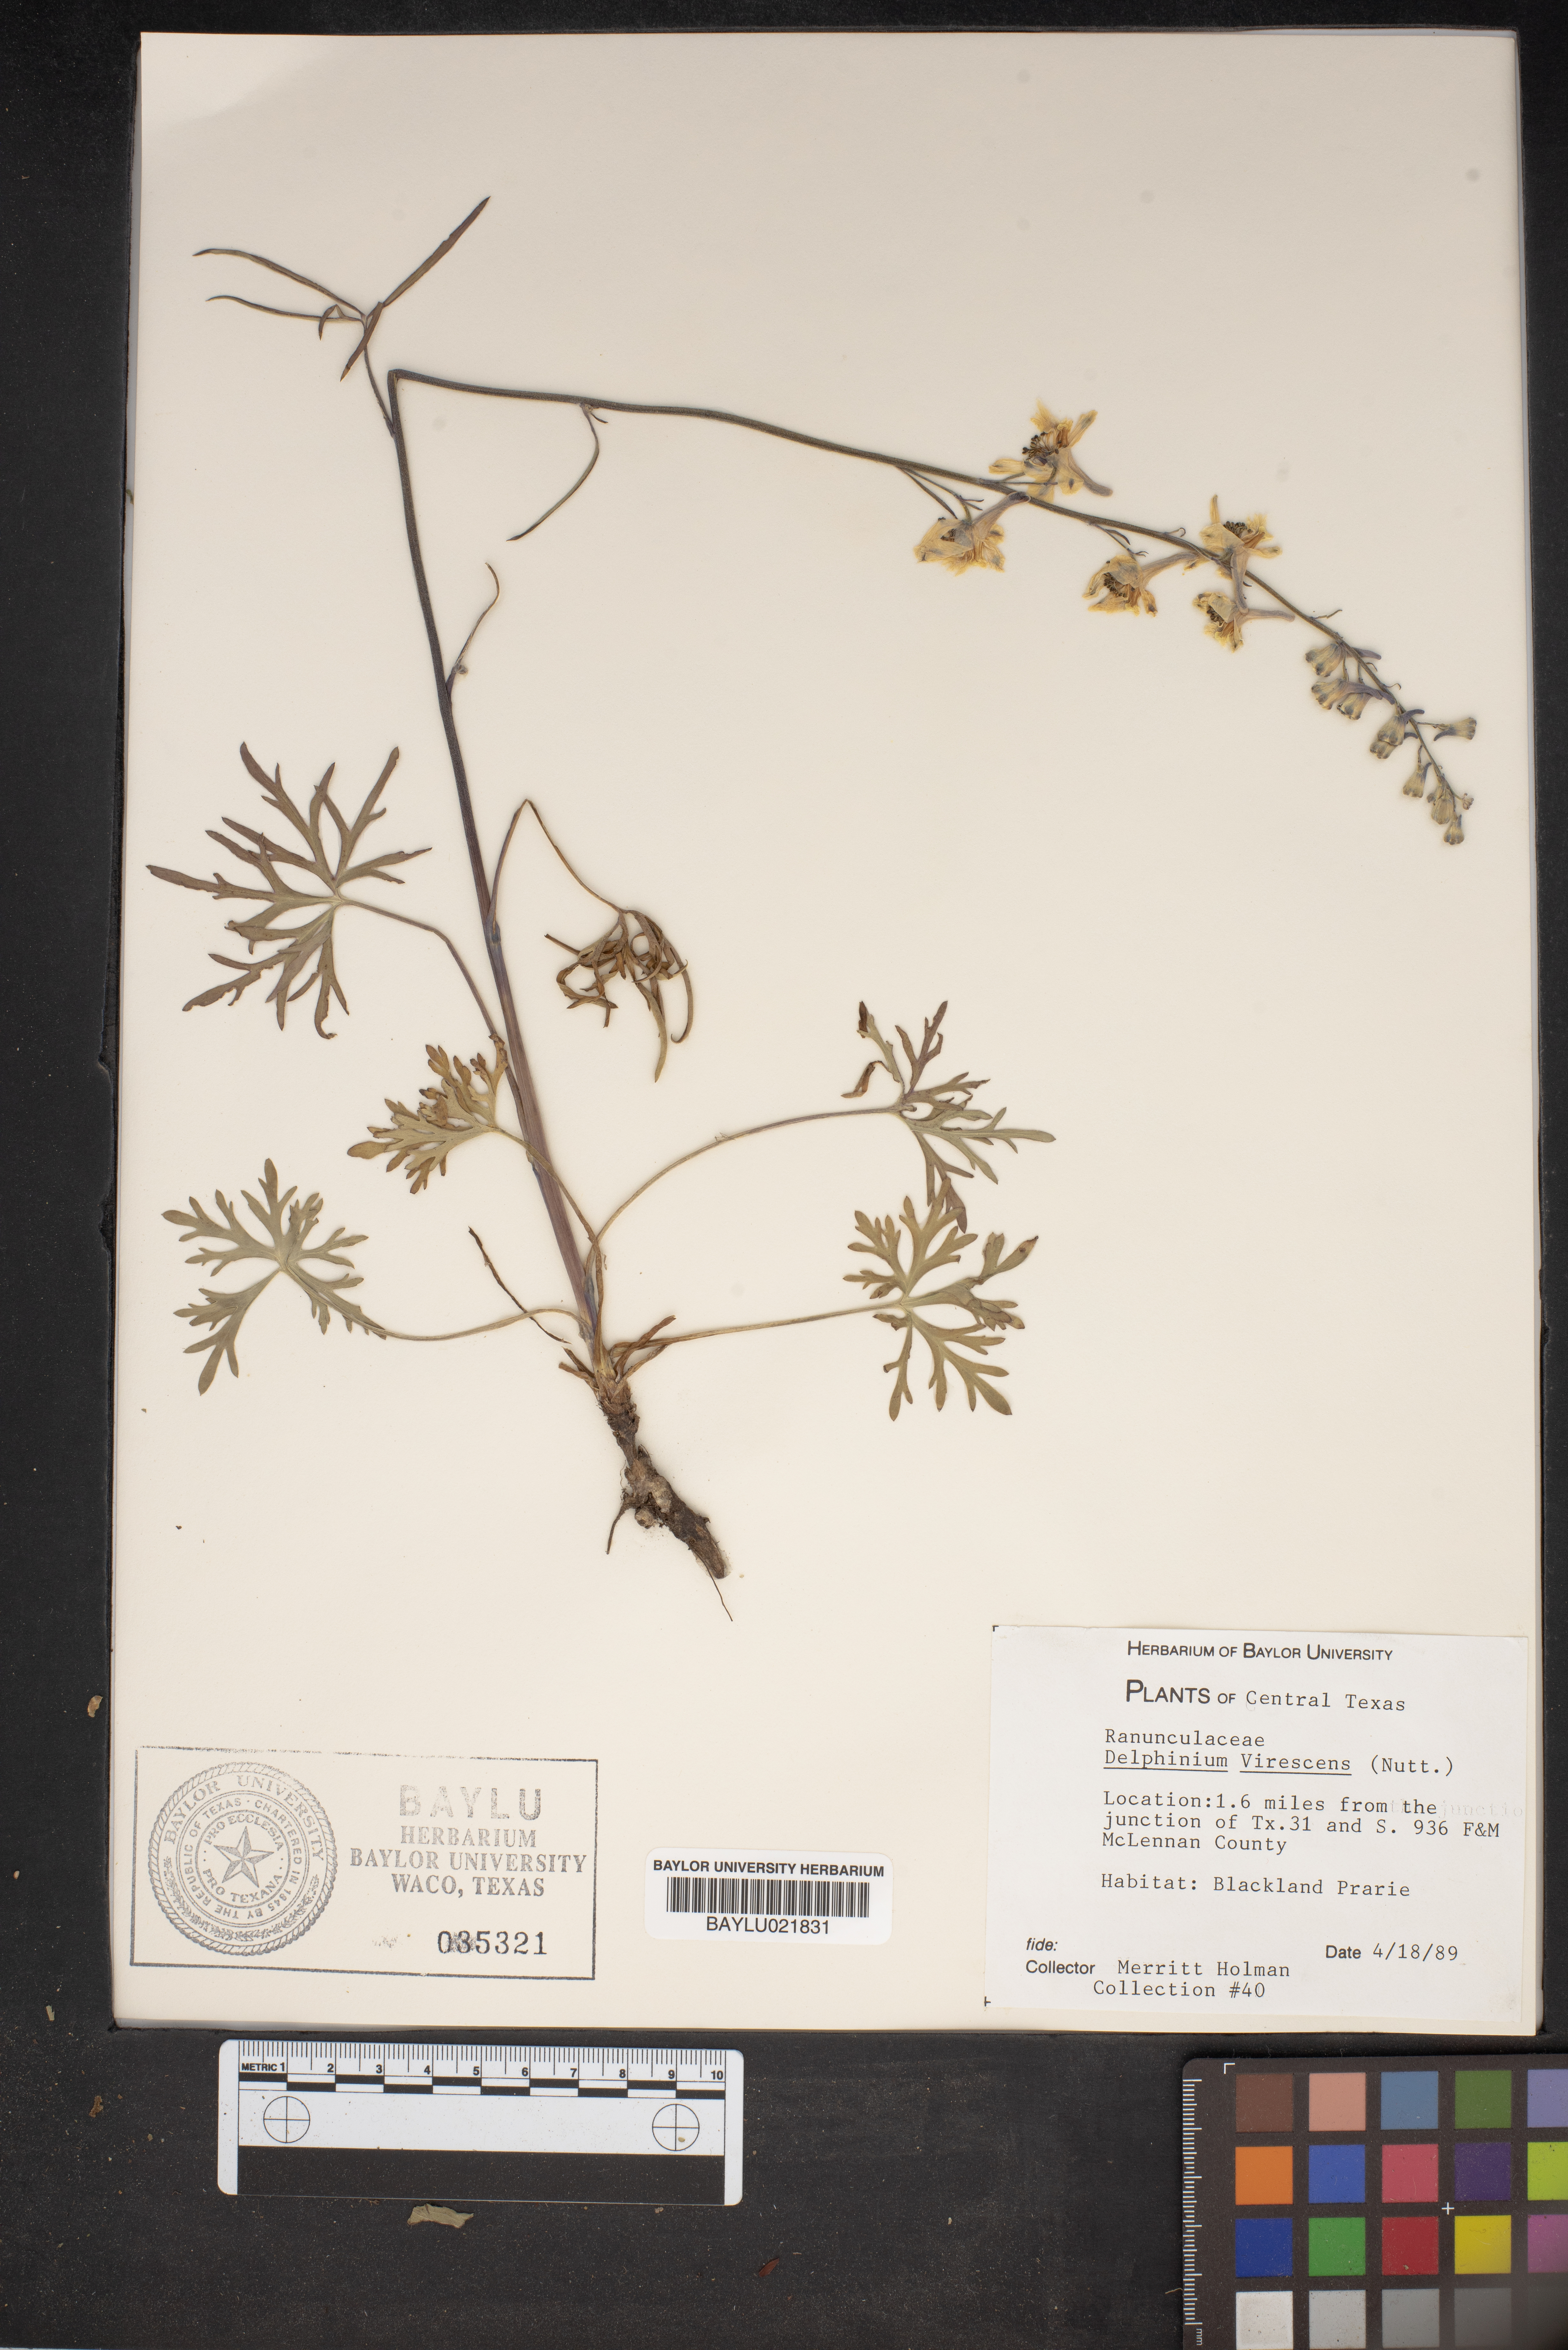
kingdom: Plantae
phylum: Tracheophyta
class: Magnoliopsida
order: Ranunculales
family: Ranunculaceae
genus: Delphinium
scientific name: Delphinium carolinianum
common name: Carolina larkspur
